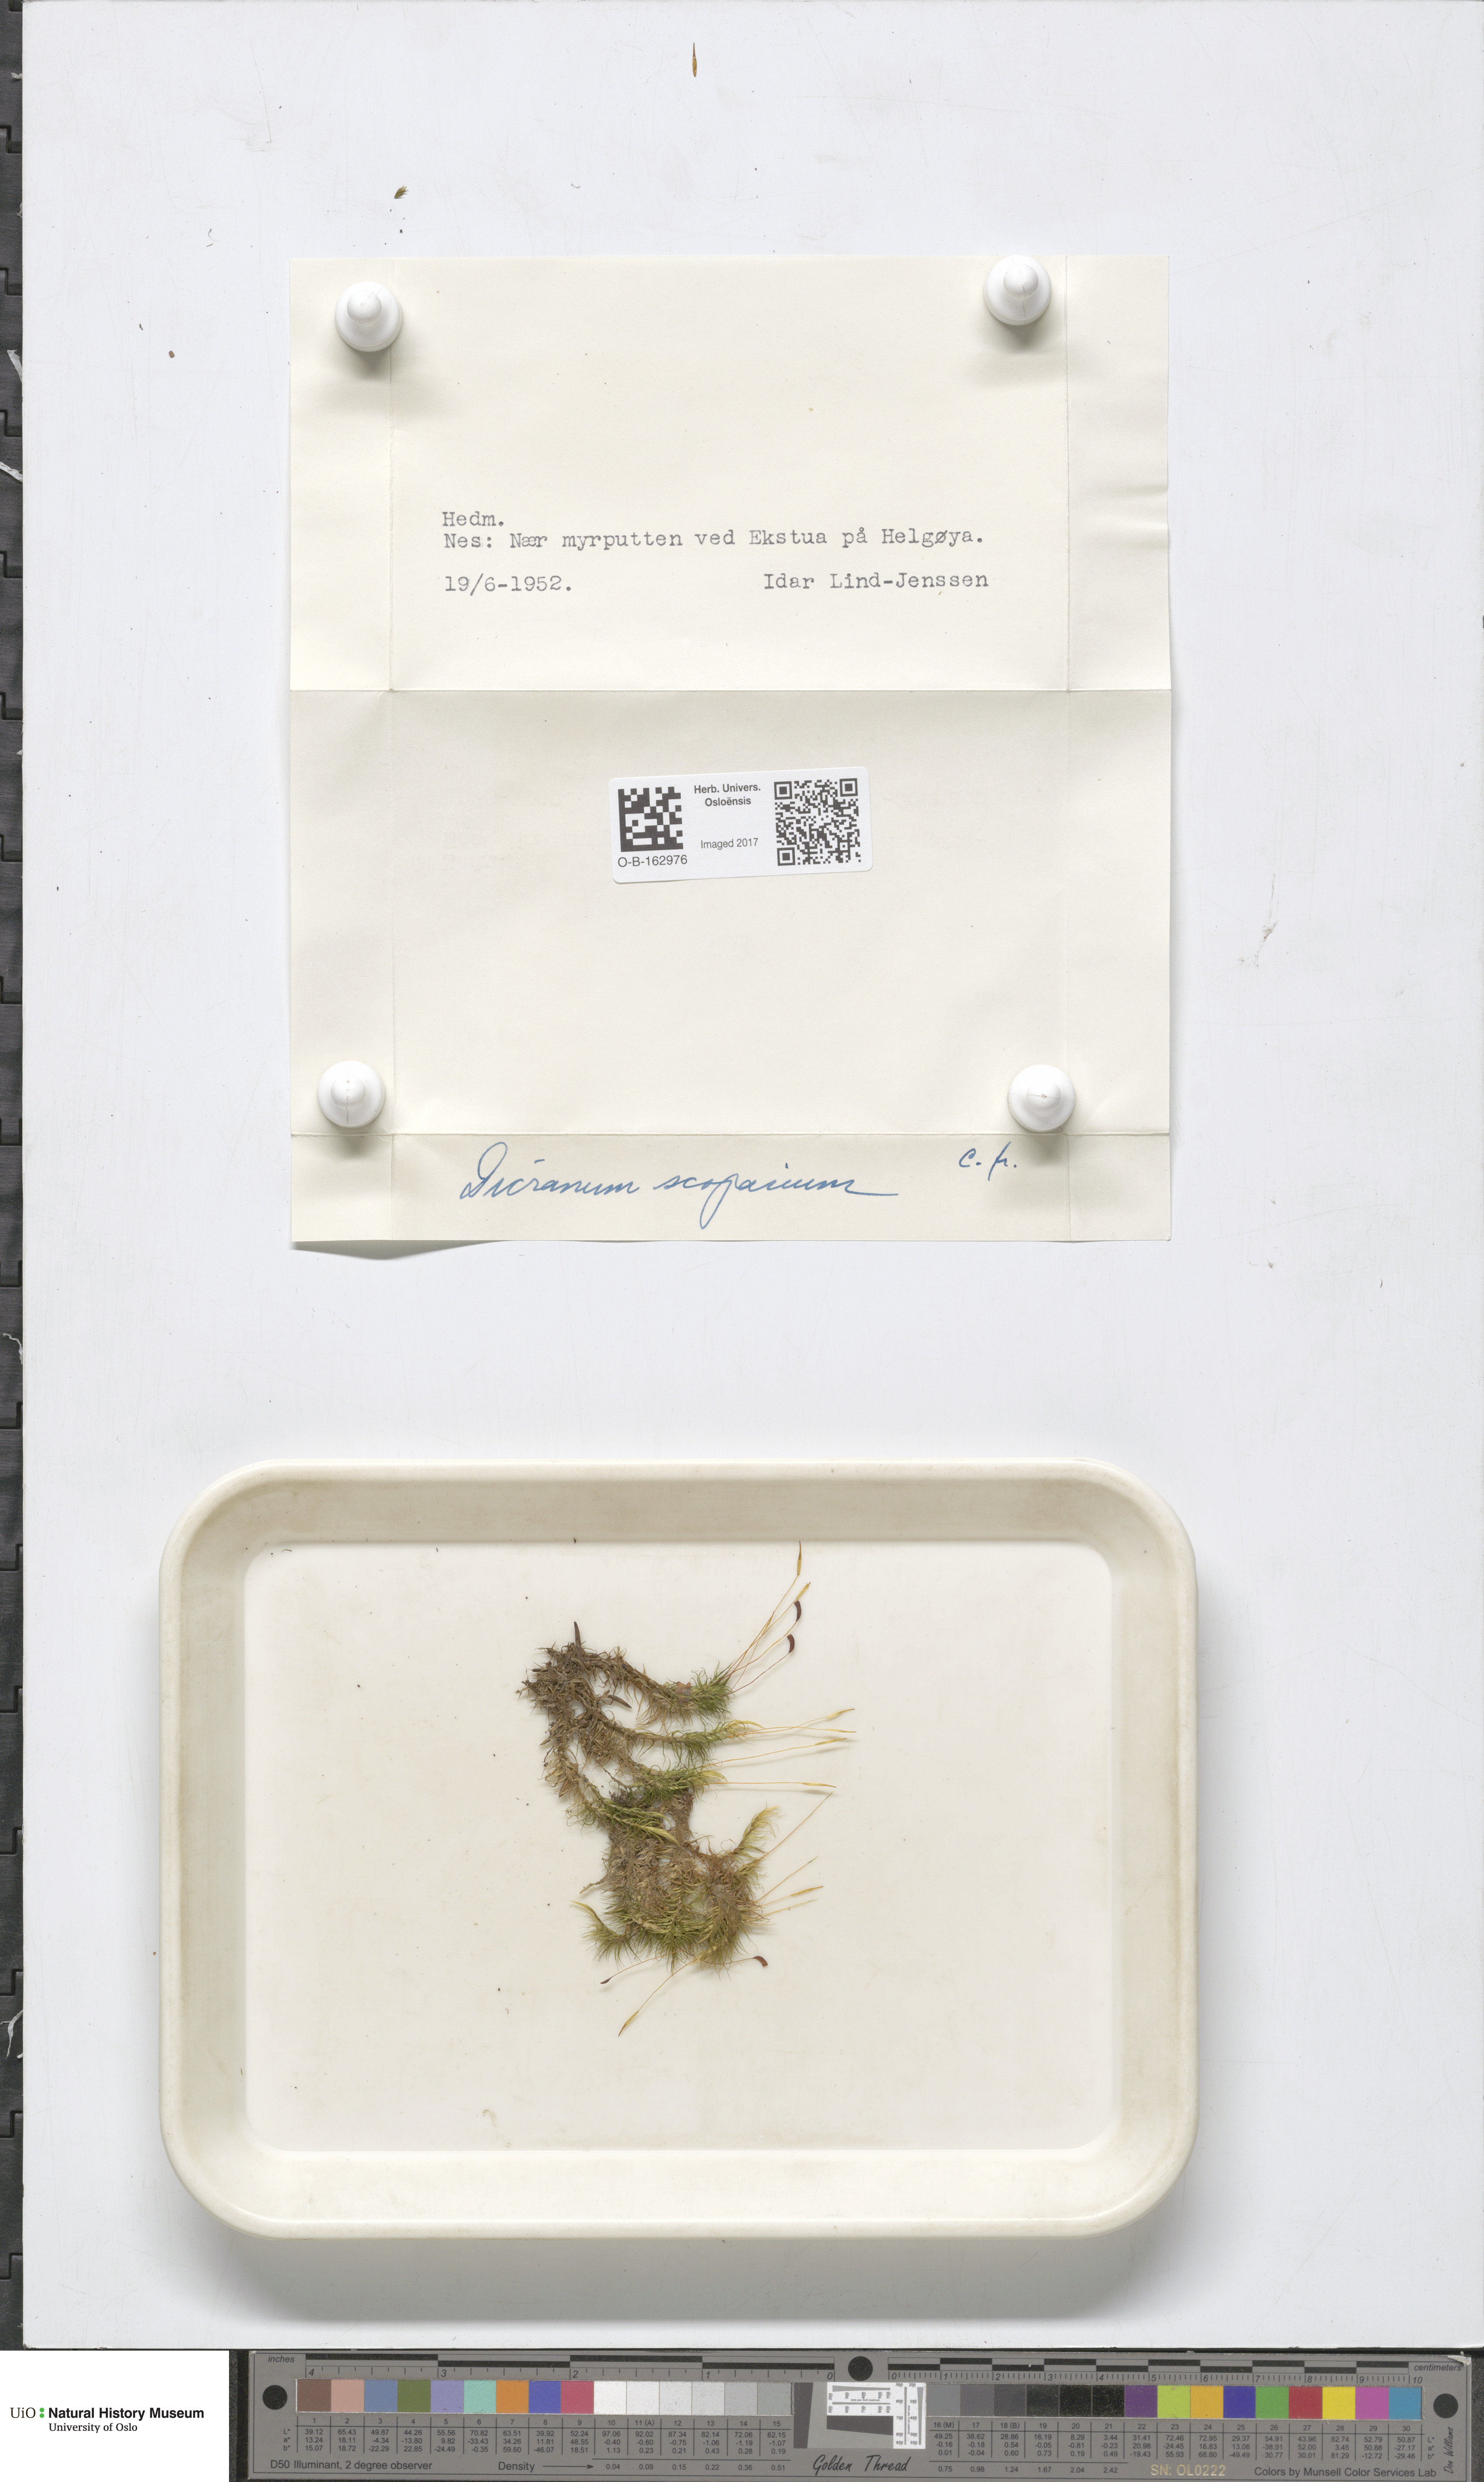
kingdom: Plantae
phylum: Bryophyta
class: Bryopsida
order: Dicranales
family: Dicranaceae
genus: Dicranum
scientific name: Dicranum scoparium
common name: Broom fork-moss
